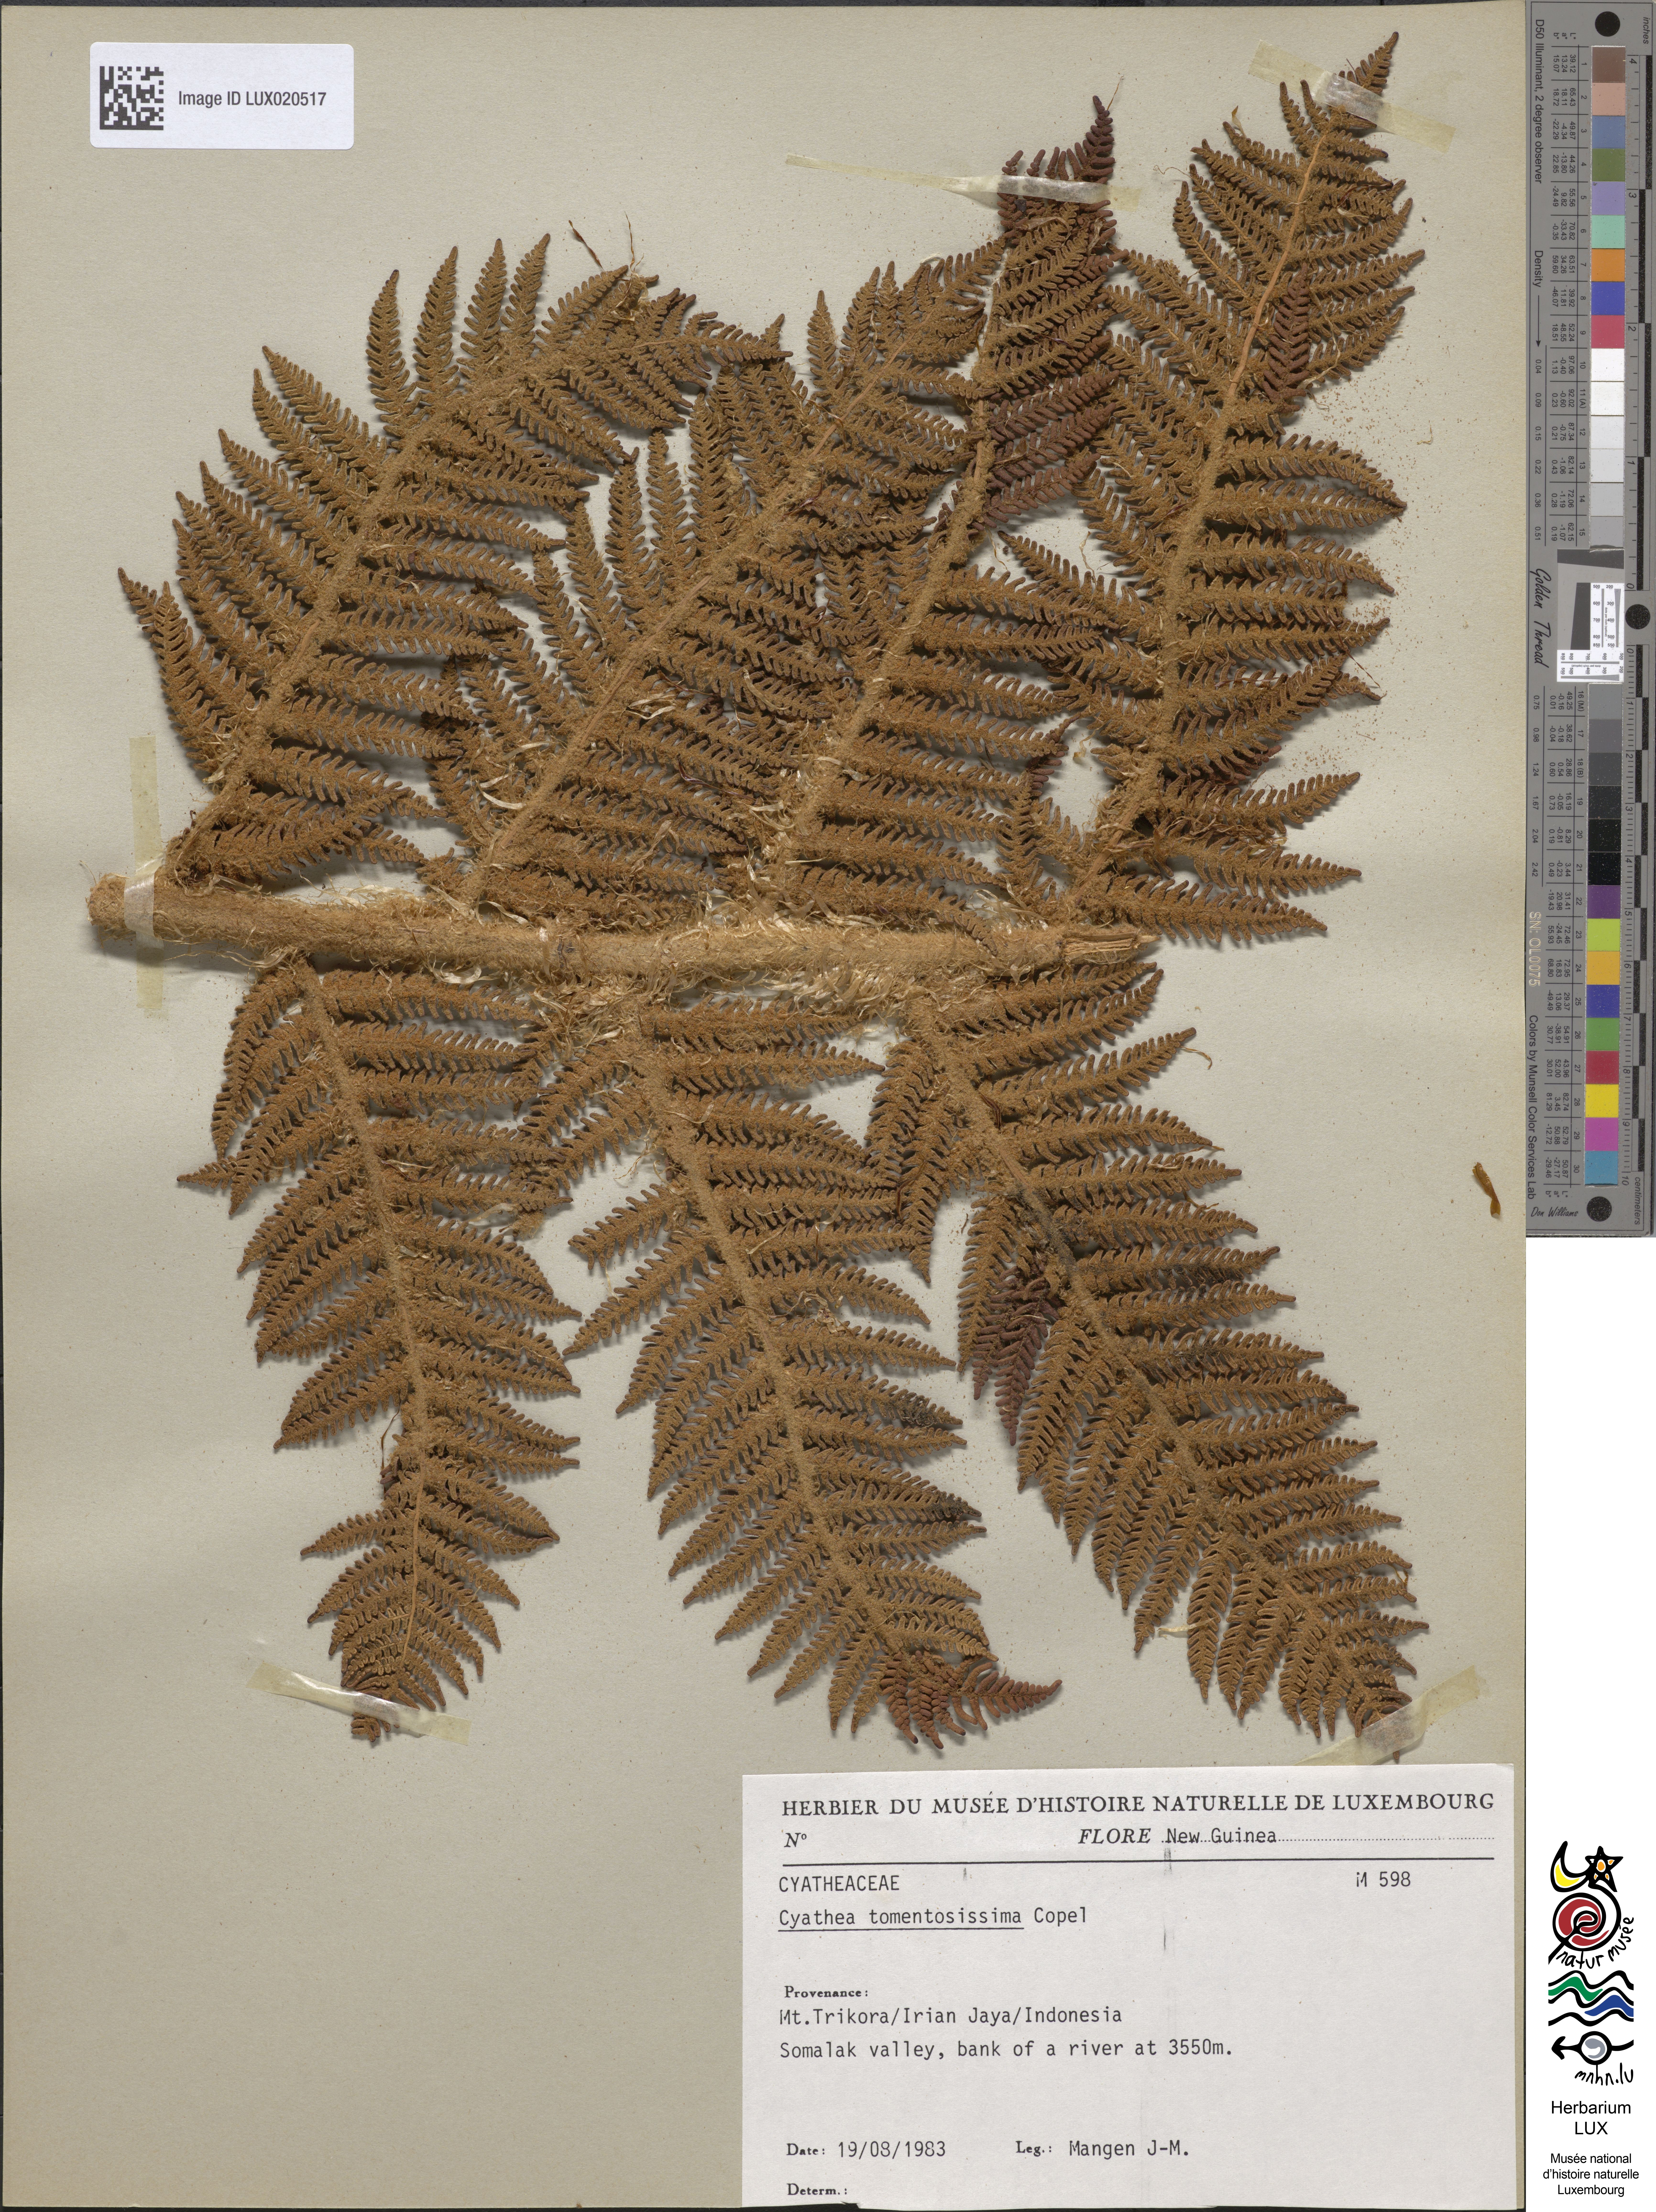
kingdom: Plantae
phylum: Tracheophyta
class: Polypodiopsida
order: Cyatheales
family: Cyatheaceae
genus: Sphaeropteris
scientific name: Sphaeropteris tomentosissima
